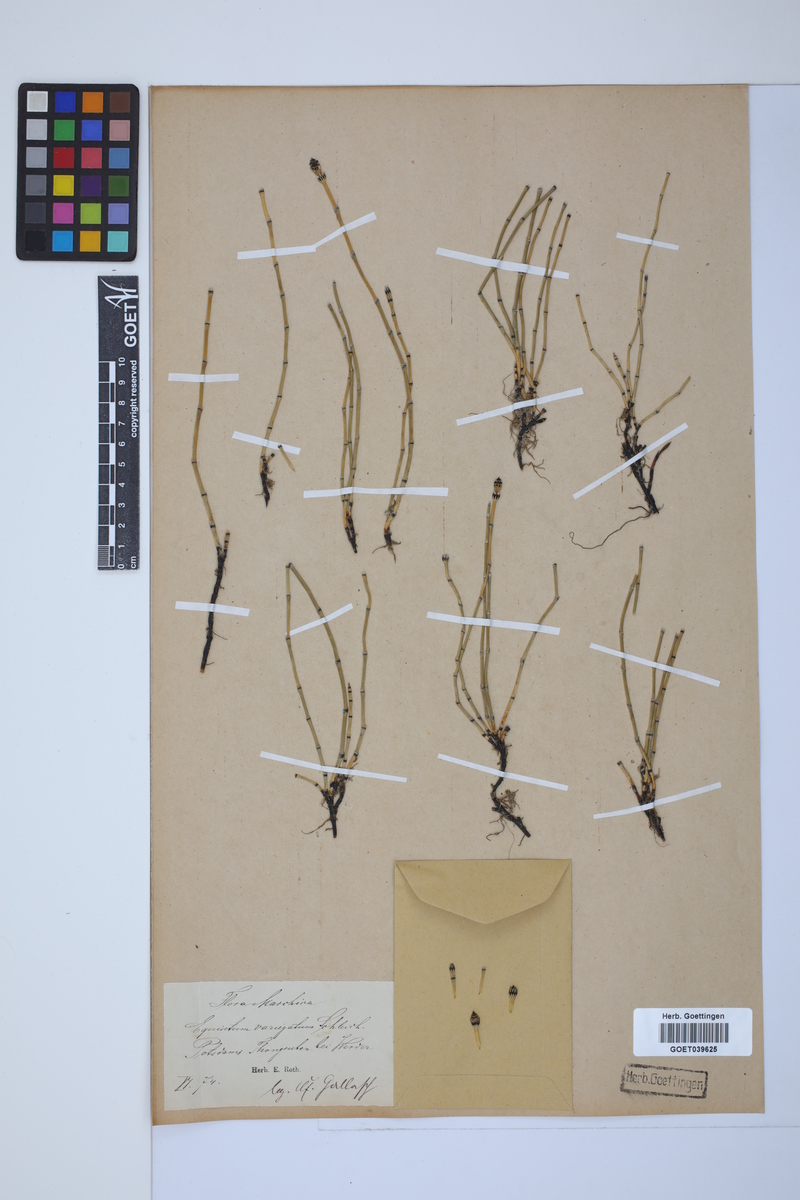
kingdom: Plantae
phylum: Tracheophyta
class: Polypodiopsida
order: Equisetales
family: Equisetaceae
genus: Equisetum
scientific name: Equisetum variegatum
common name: Variegated horsetail
